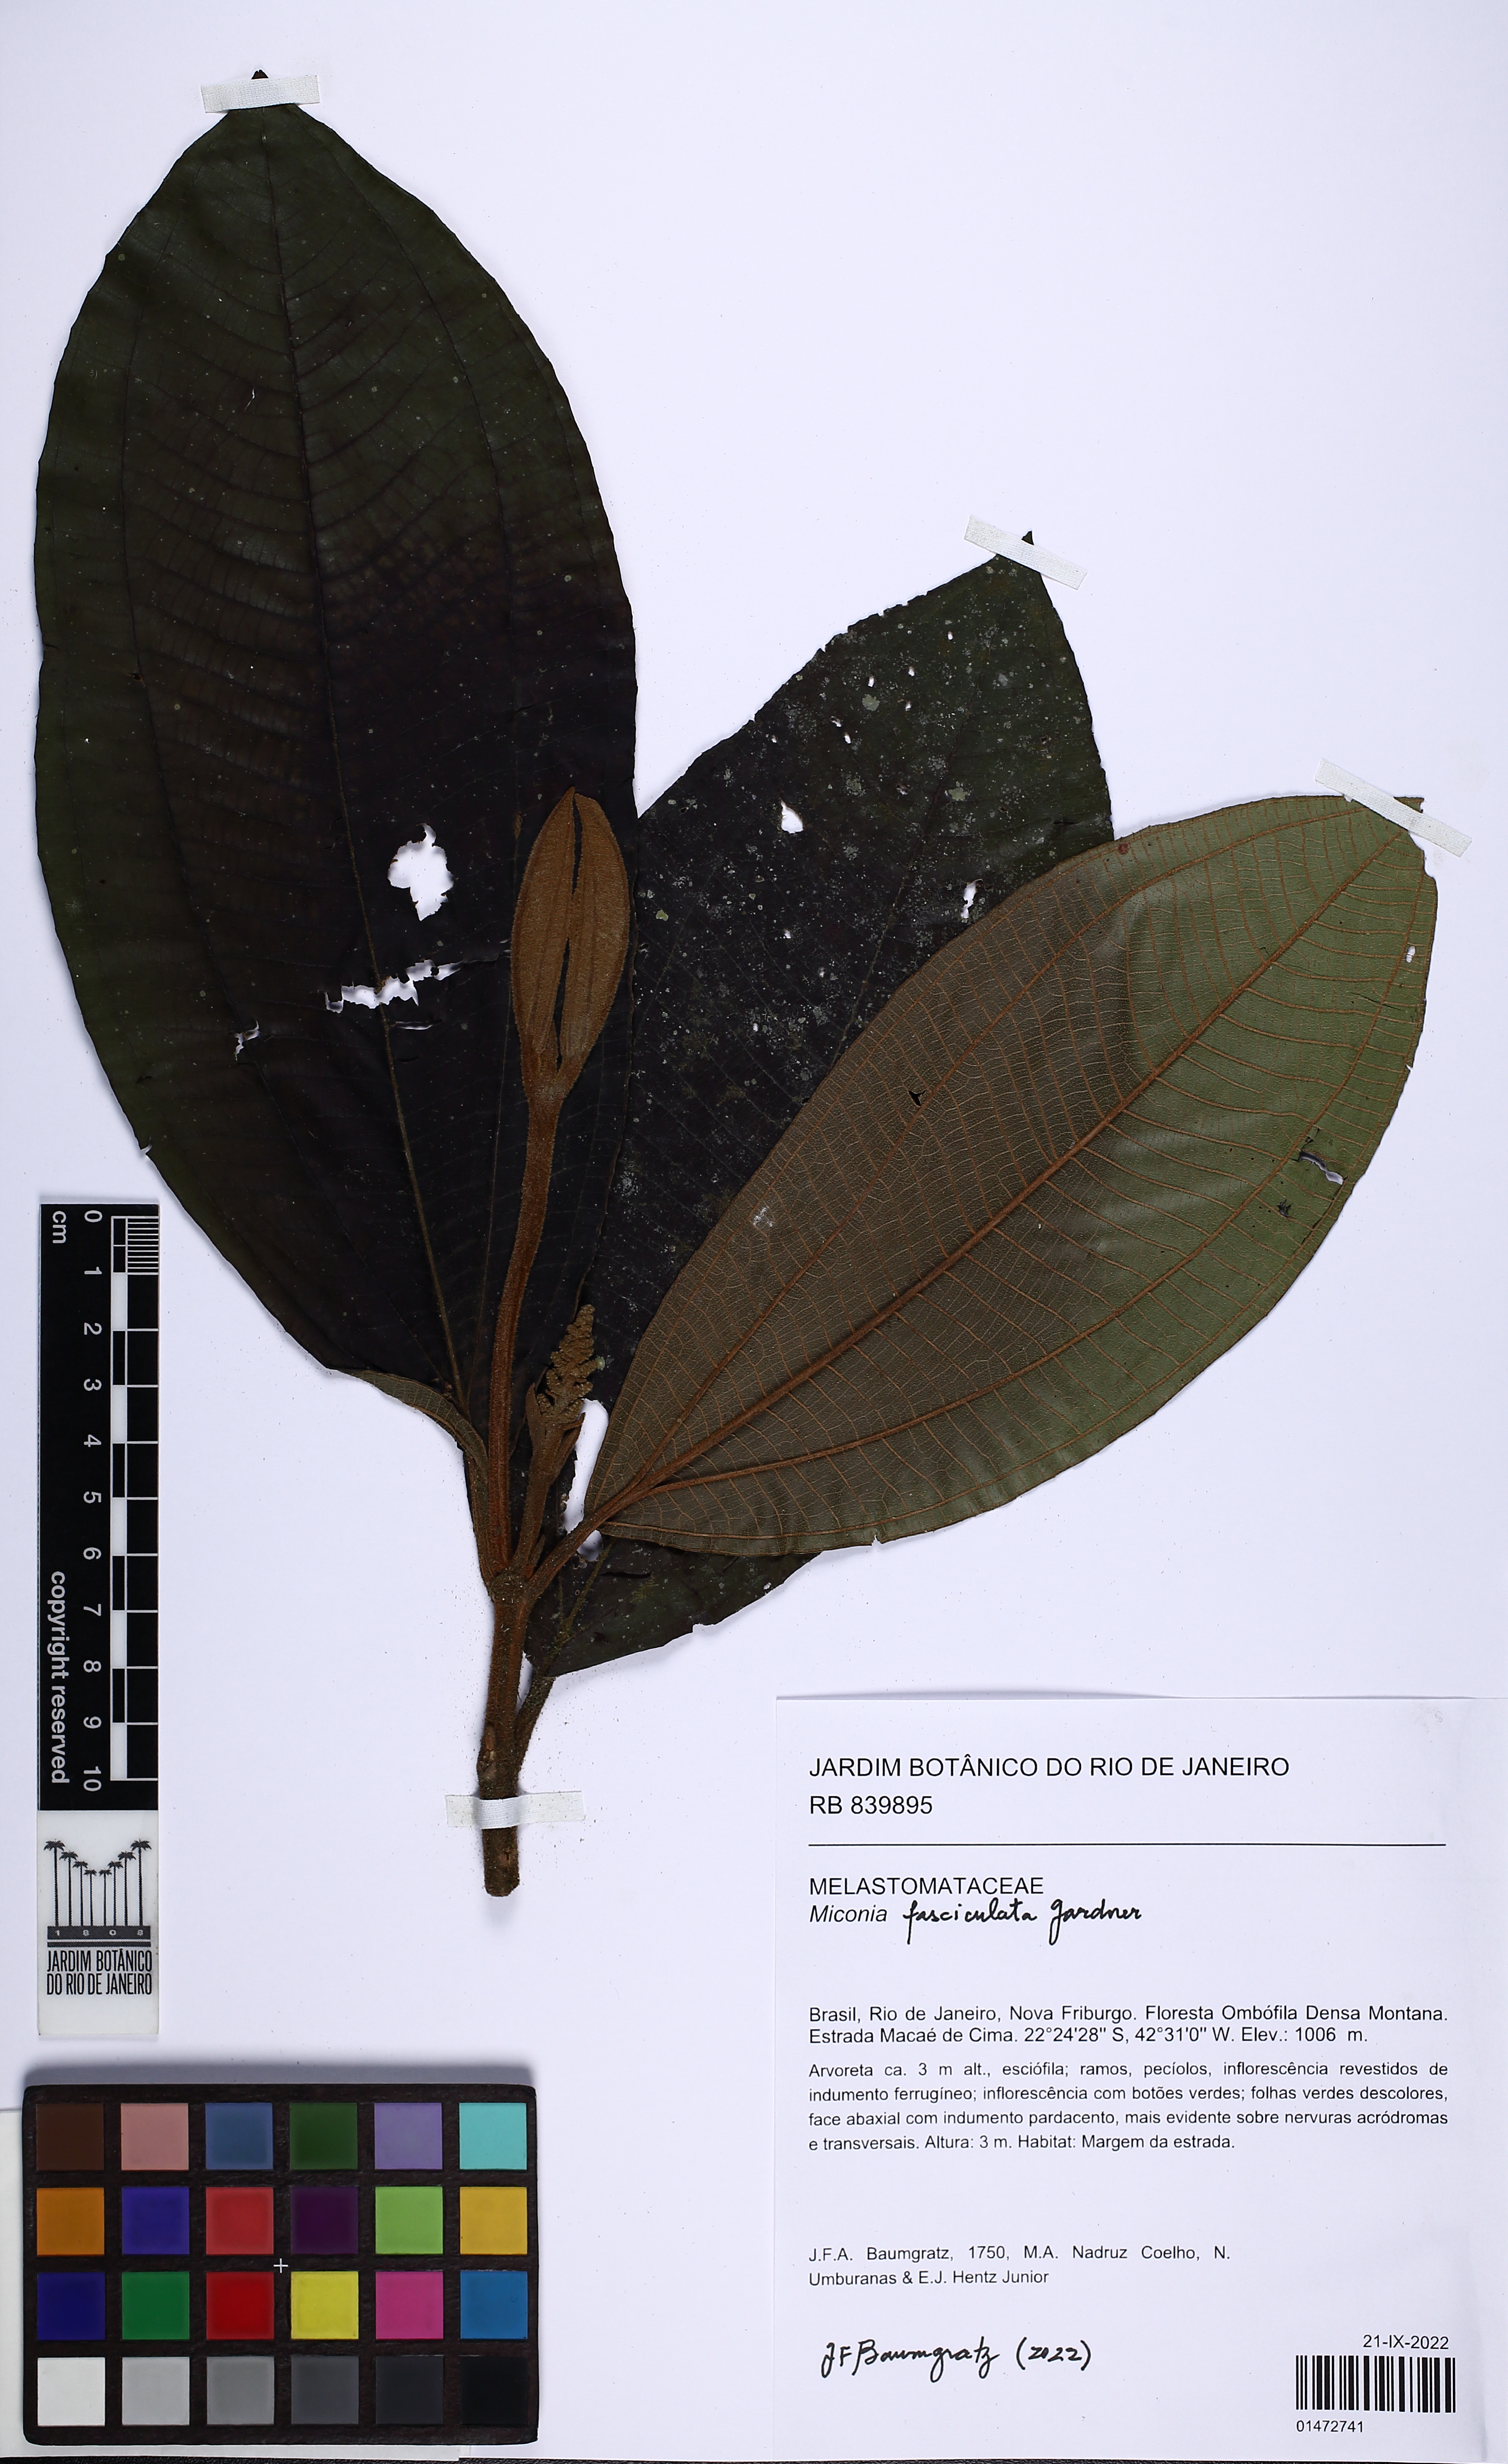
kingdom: Plantae
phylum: Tracheophyta
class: Magnoliopsida
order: Myrtales
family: Melastomataceae
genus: Miconia
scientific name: Miconia fasciculata
